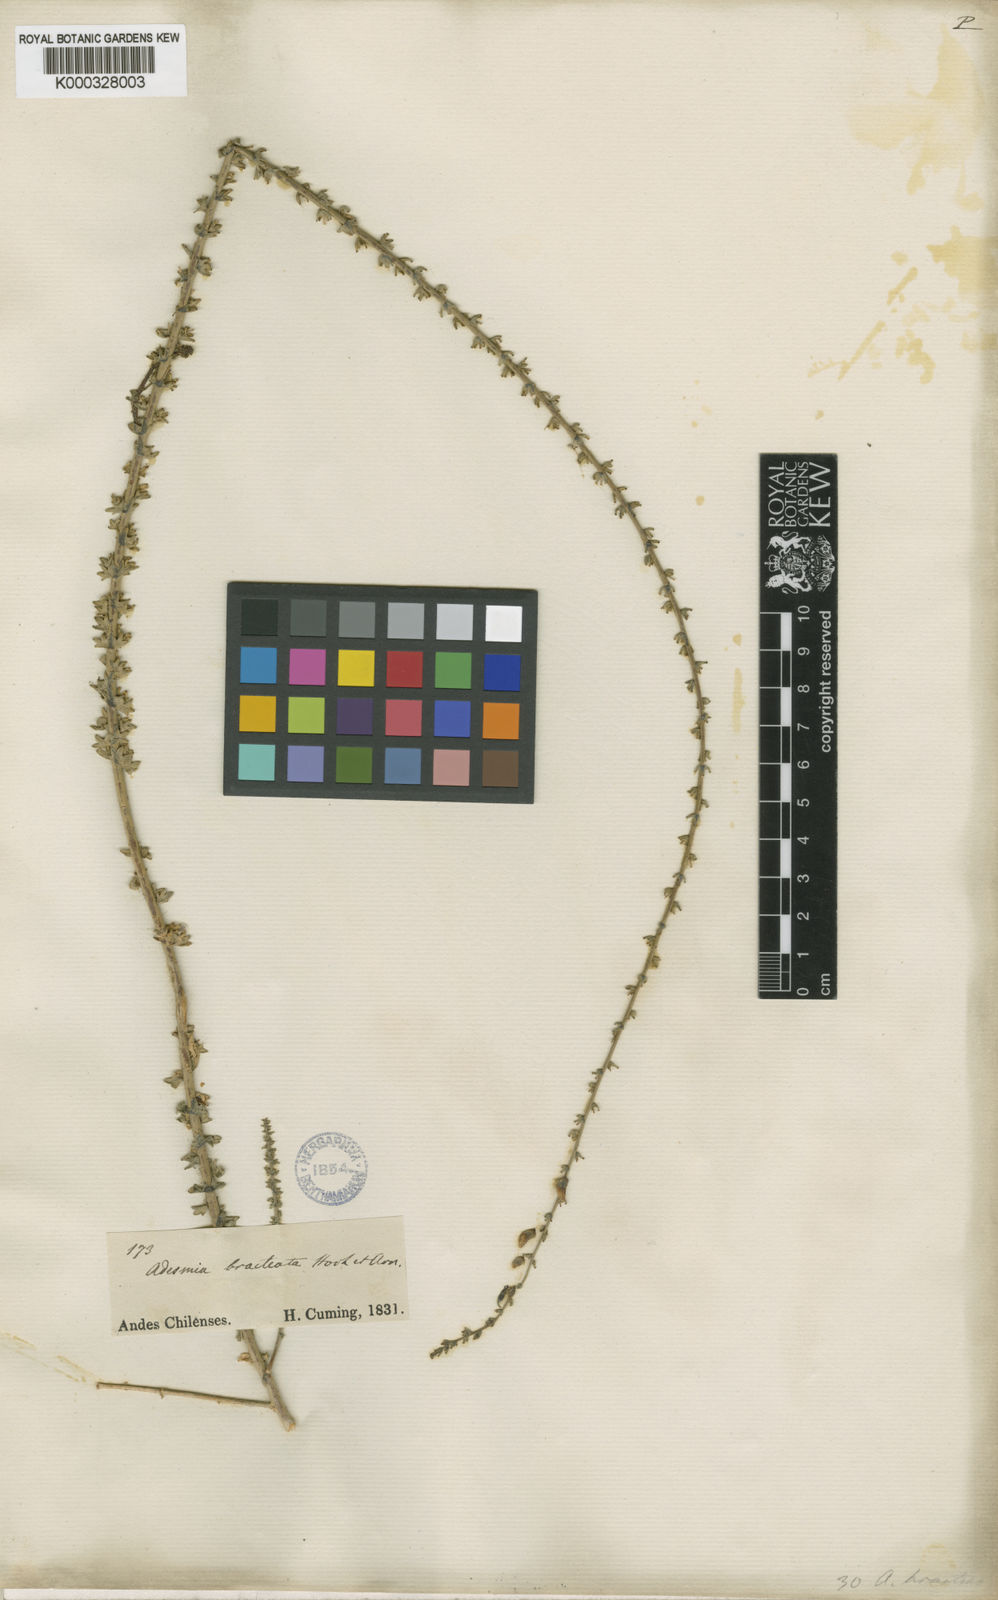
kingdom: Plantae
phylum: Tracheophyta
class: Magnoliopsida
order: Fabales
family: Fabaceae
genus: Adesmia
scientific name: Adesmia bracteata
